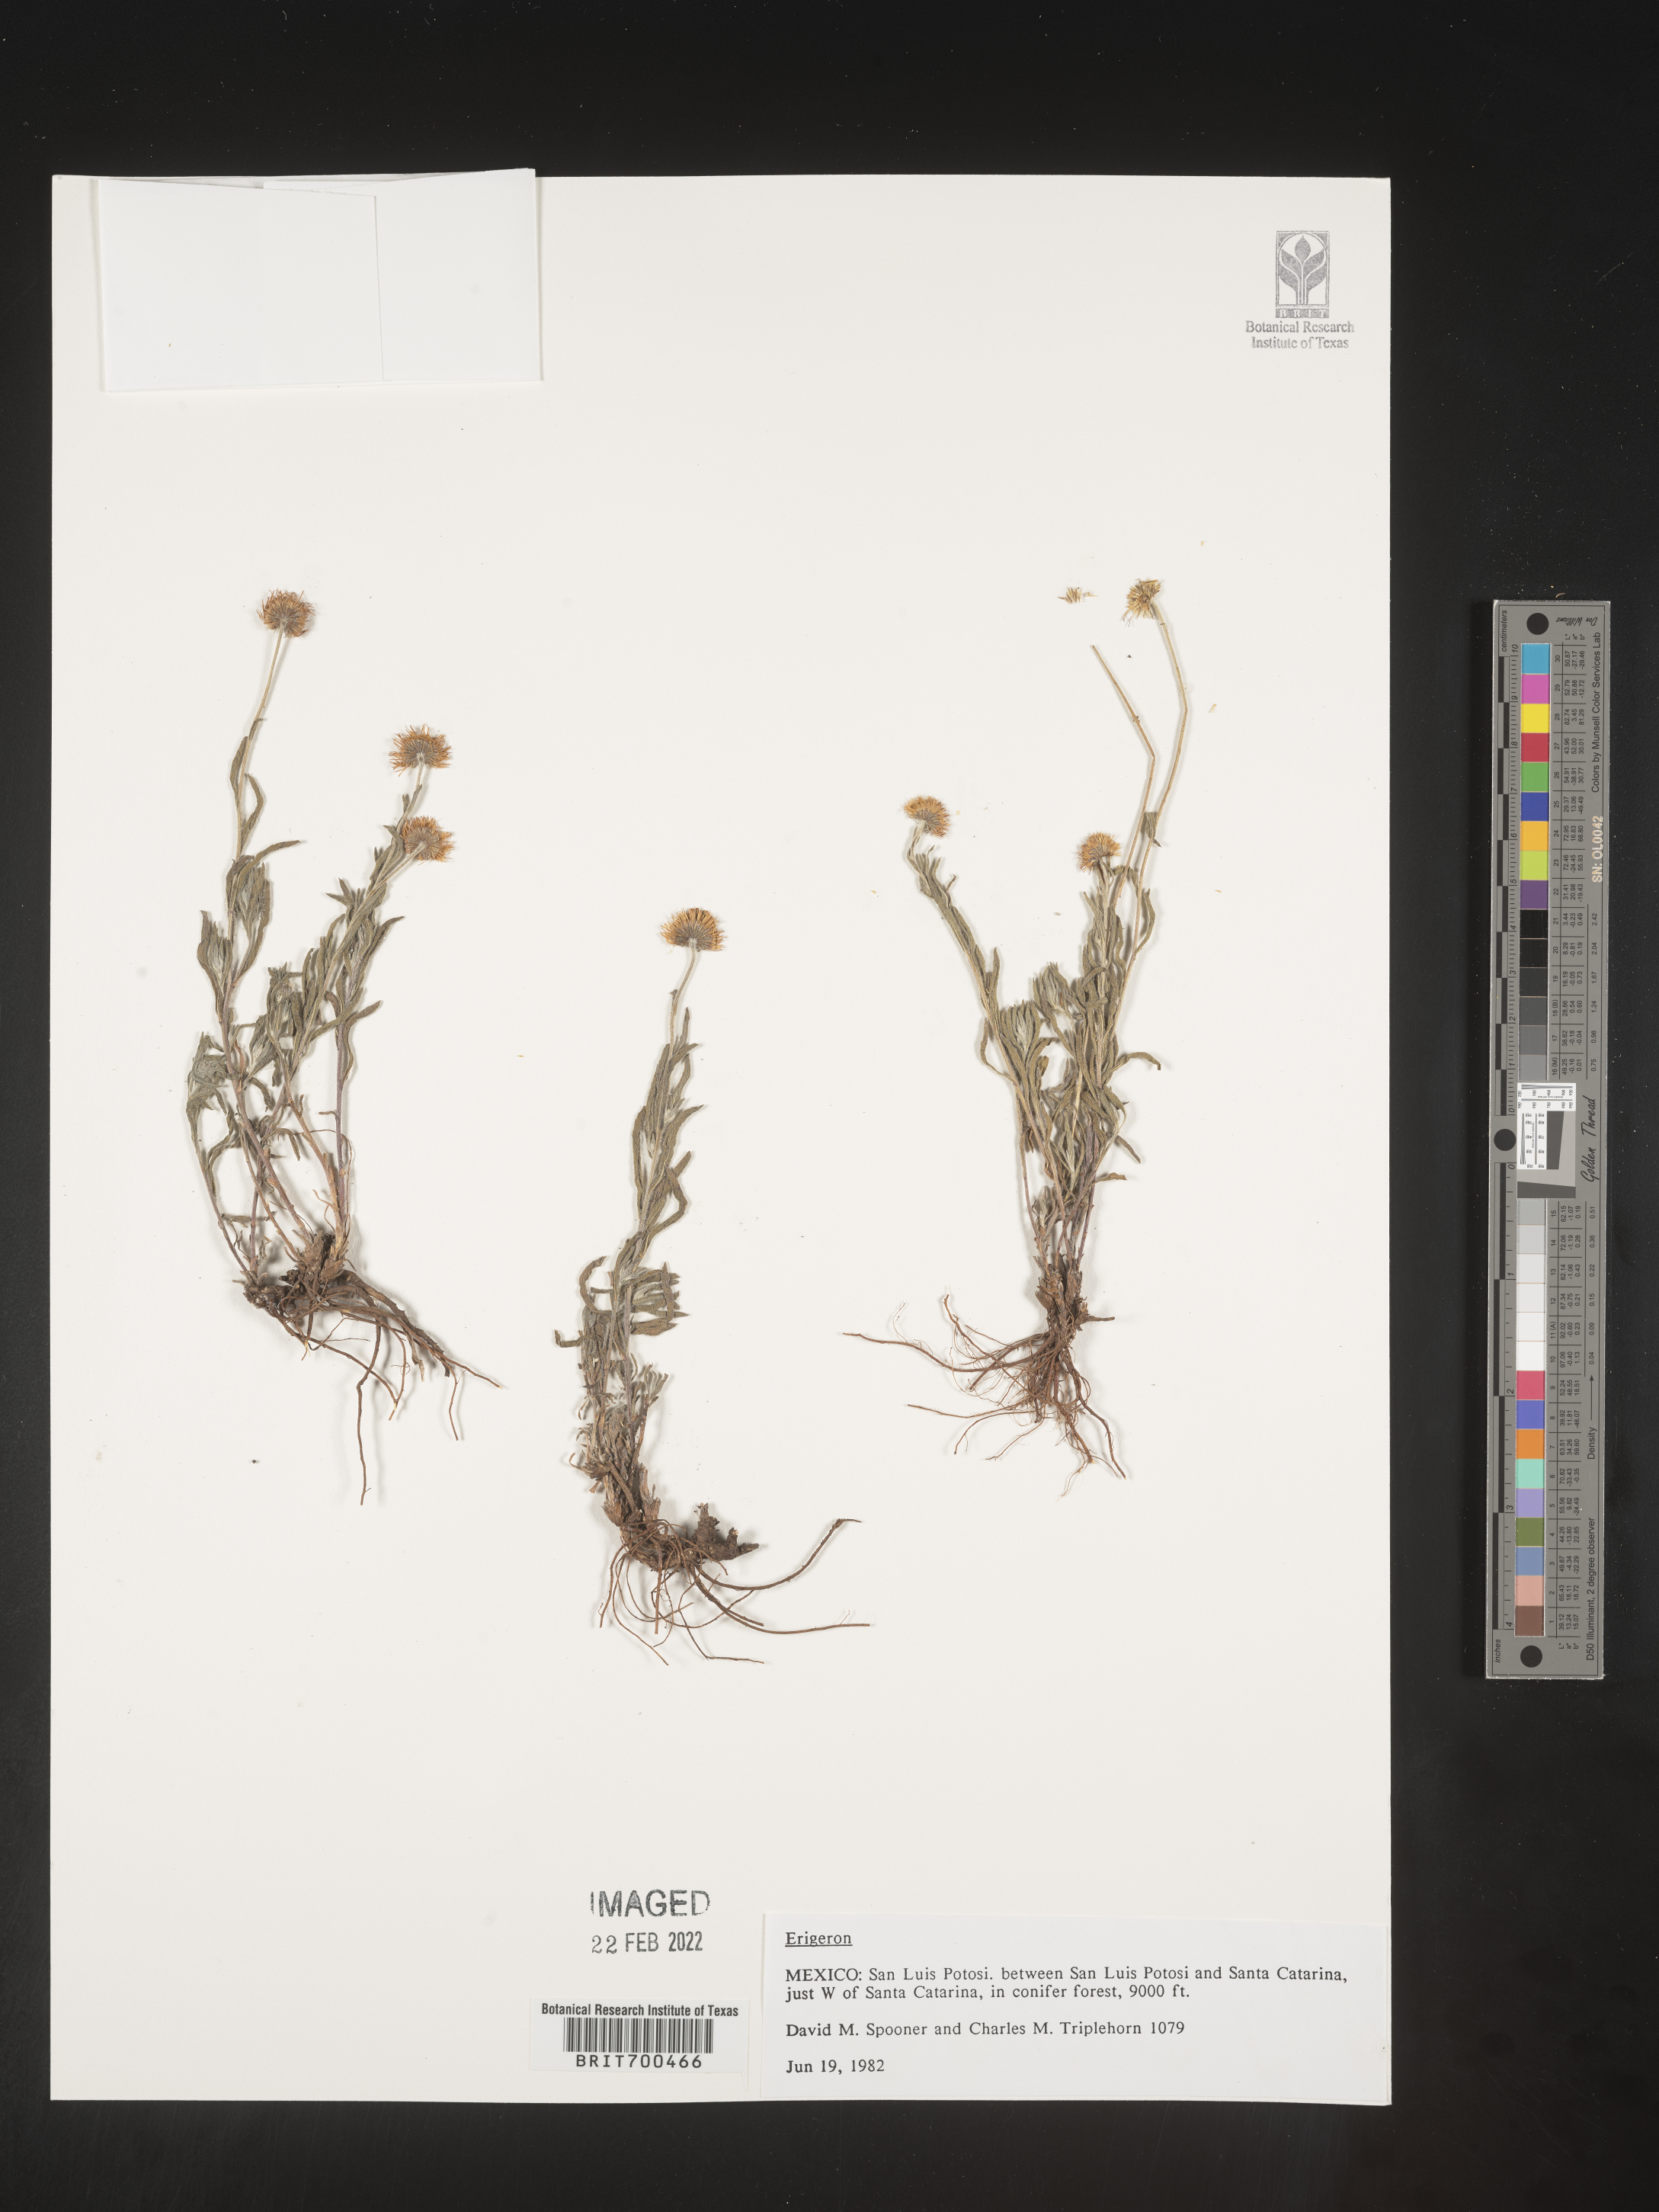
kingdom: Plantae
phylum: Tracheophyta
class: Magnoliopsida
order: Asterales
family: Asteraceae
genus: Erigeron
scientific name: Erigeron
